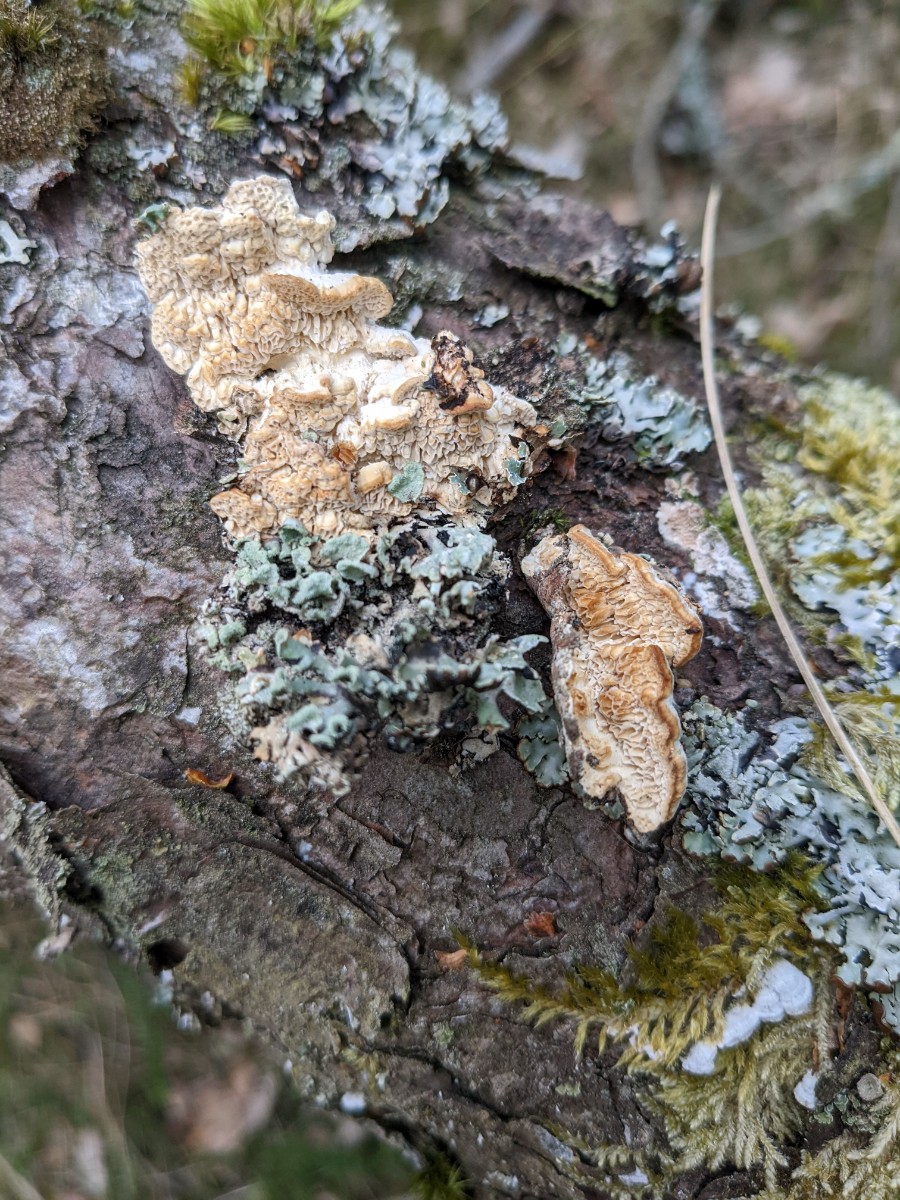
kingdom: Fungi
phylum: Basidiomycota
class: Agaricomycetes
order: Polyporales
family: Fomitopsidaceae
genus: Fomitopsis
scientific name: Fomitopsis
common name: fyrre-skiveporesvamp
